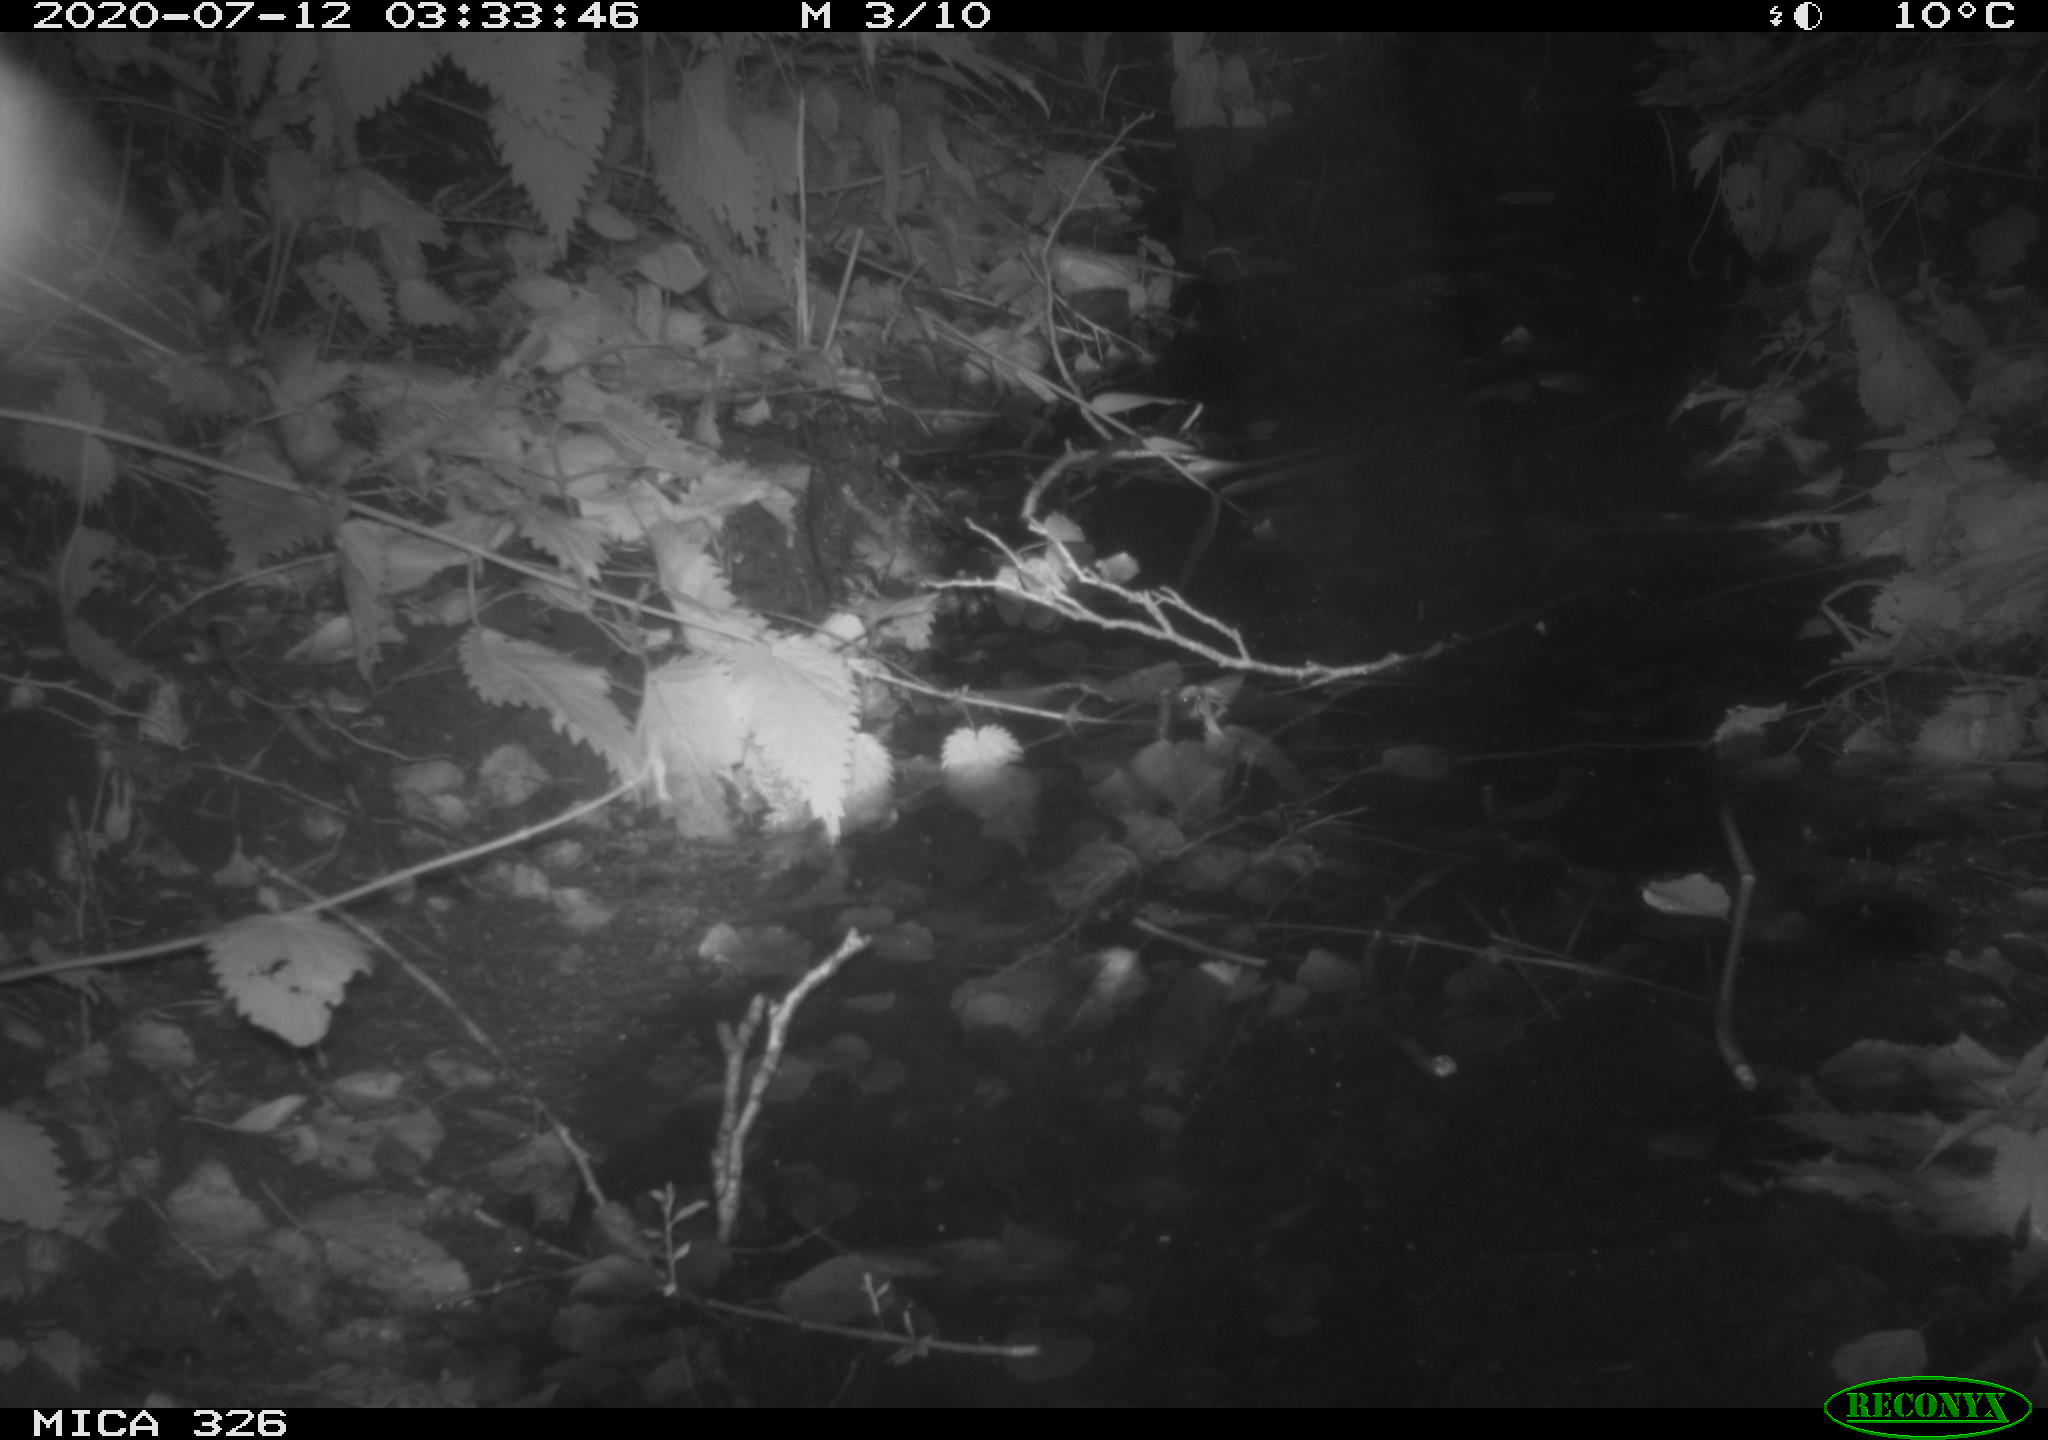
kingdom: Animalia
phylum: Chordata
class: Mammalia
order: Rodentia
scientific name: Rodentia
